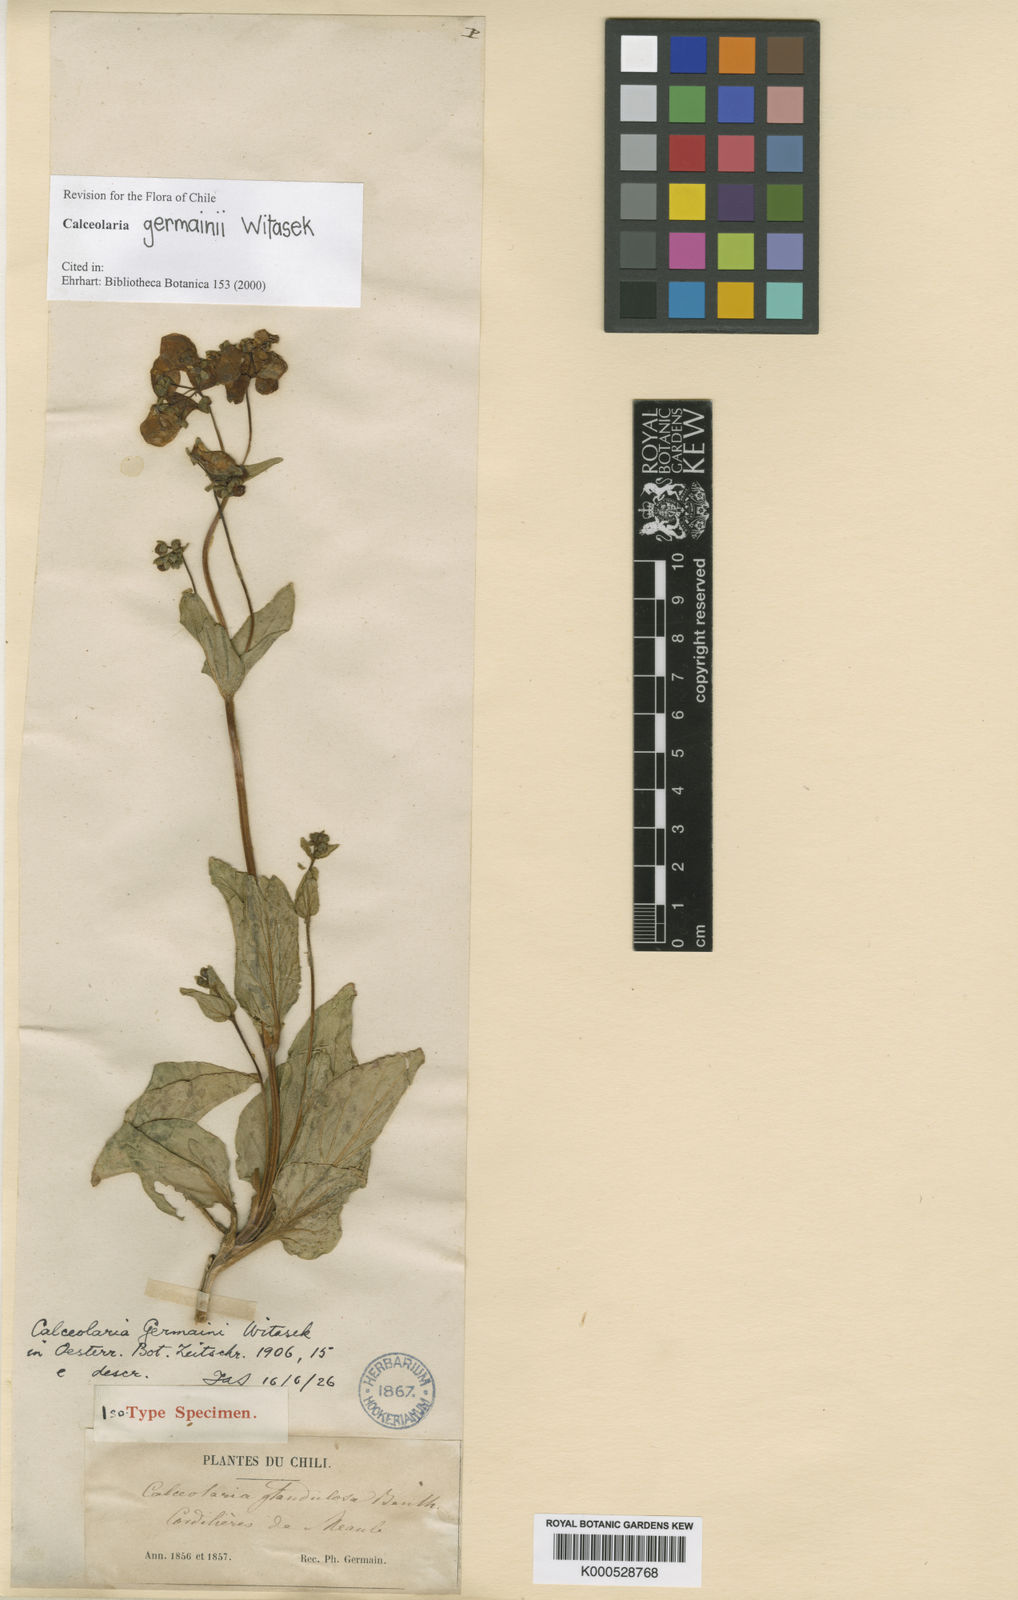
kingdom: Plantae
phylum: Tracheophyta
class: Magnoliopsida
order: Lamiales
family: Calceolariaceae
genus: Calceolaria
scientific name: Calceolaria germainii
